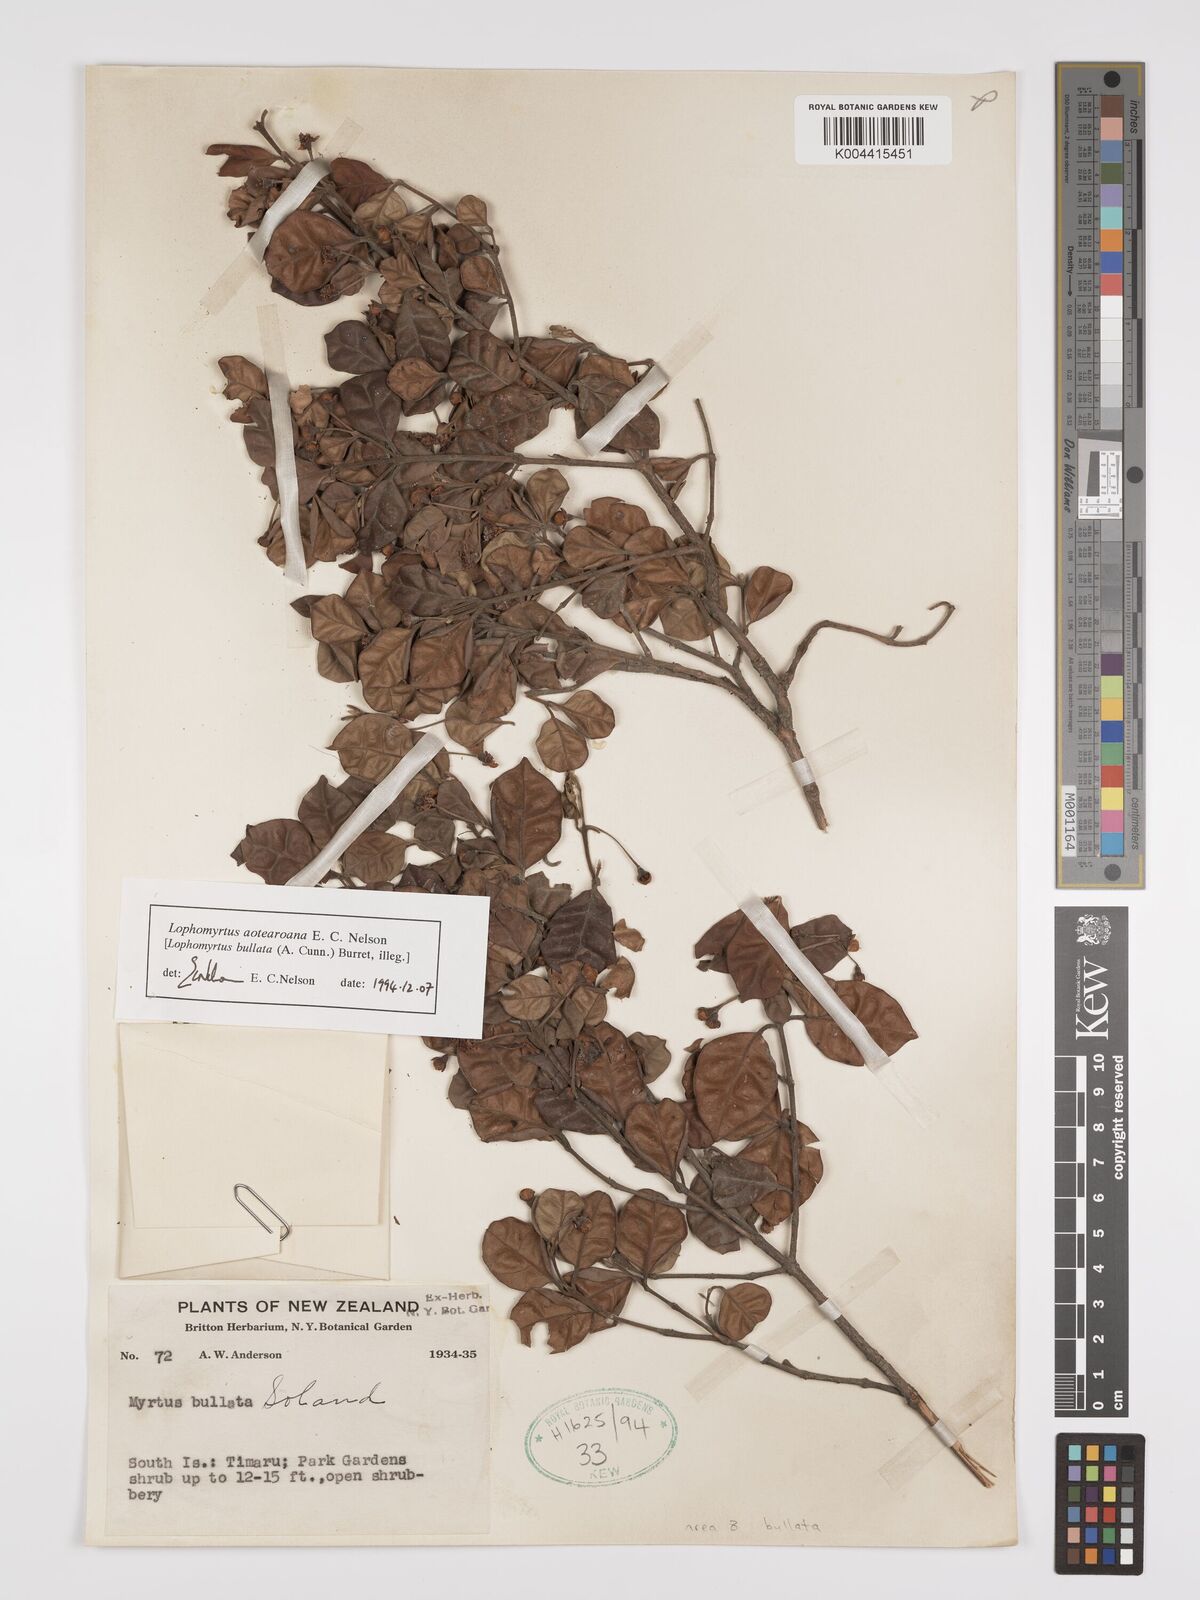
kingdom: Plantae
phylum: Tracheophyta
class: Magnoliopsida
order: Myrtales
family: Myrtaceae
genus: Lophomyrtus
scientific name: Lophomyrtus bullata
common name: Rama rama
